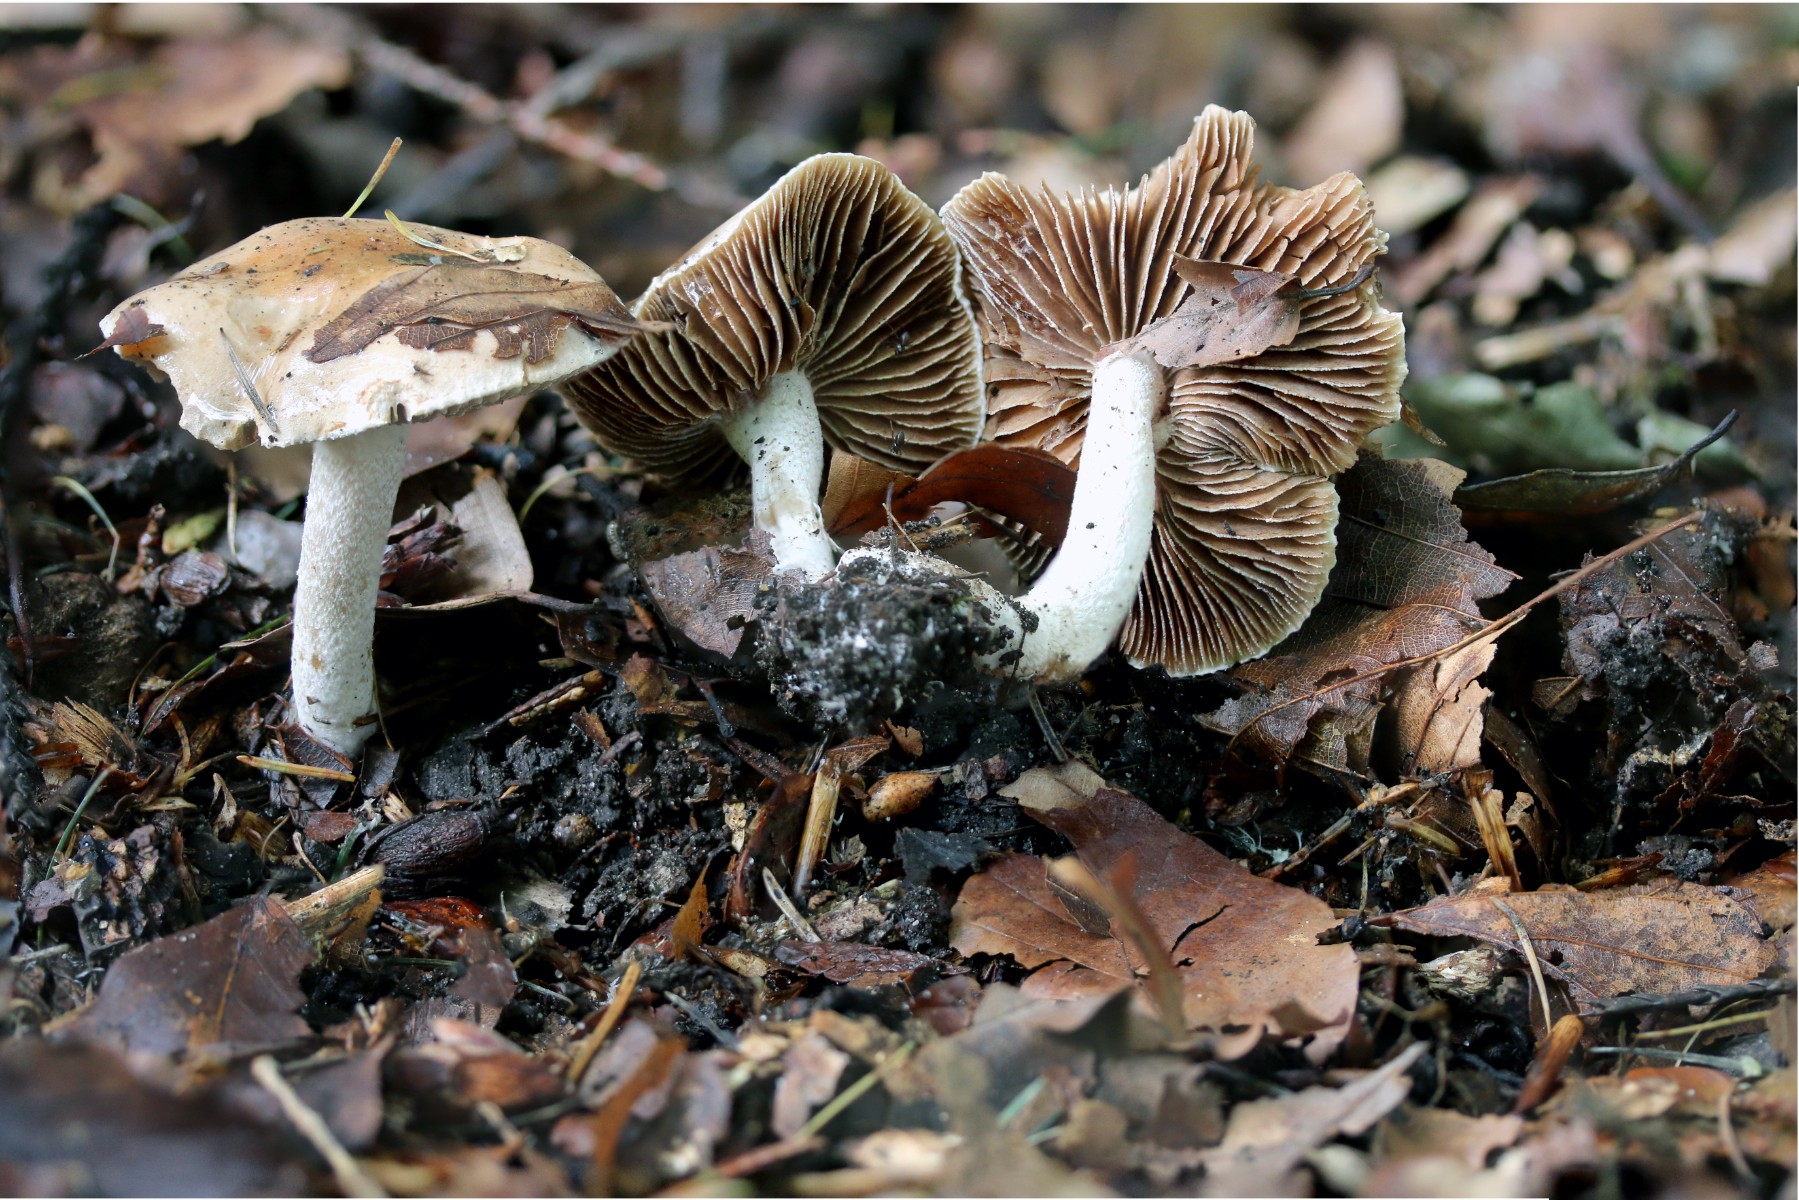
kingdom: Fungi
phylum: Basidiomycota
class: Agaricomycetes
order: Agaricales
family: Hymenogastraceae
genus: Hebeloma
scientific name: Hebeloma leucosarx
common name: højstokket tåreblad
